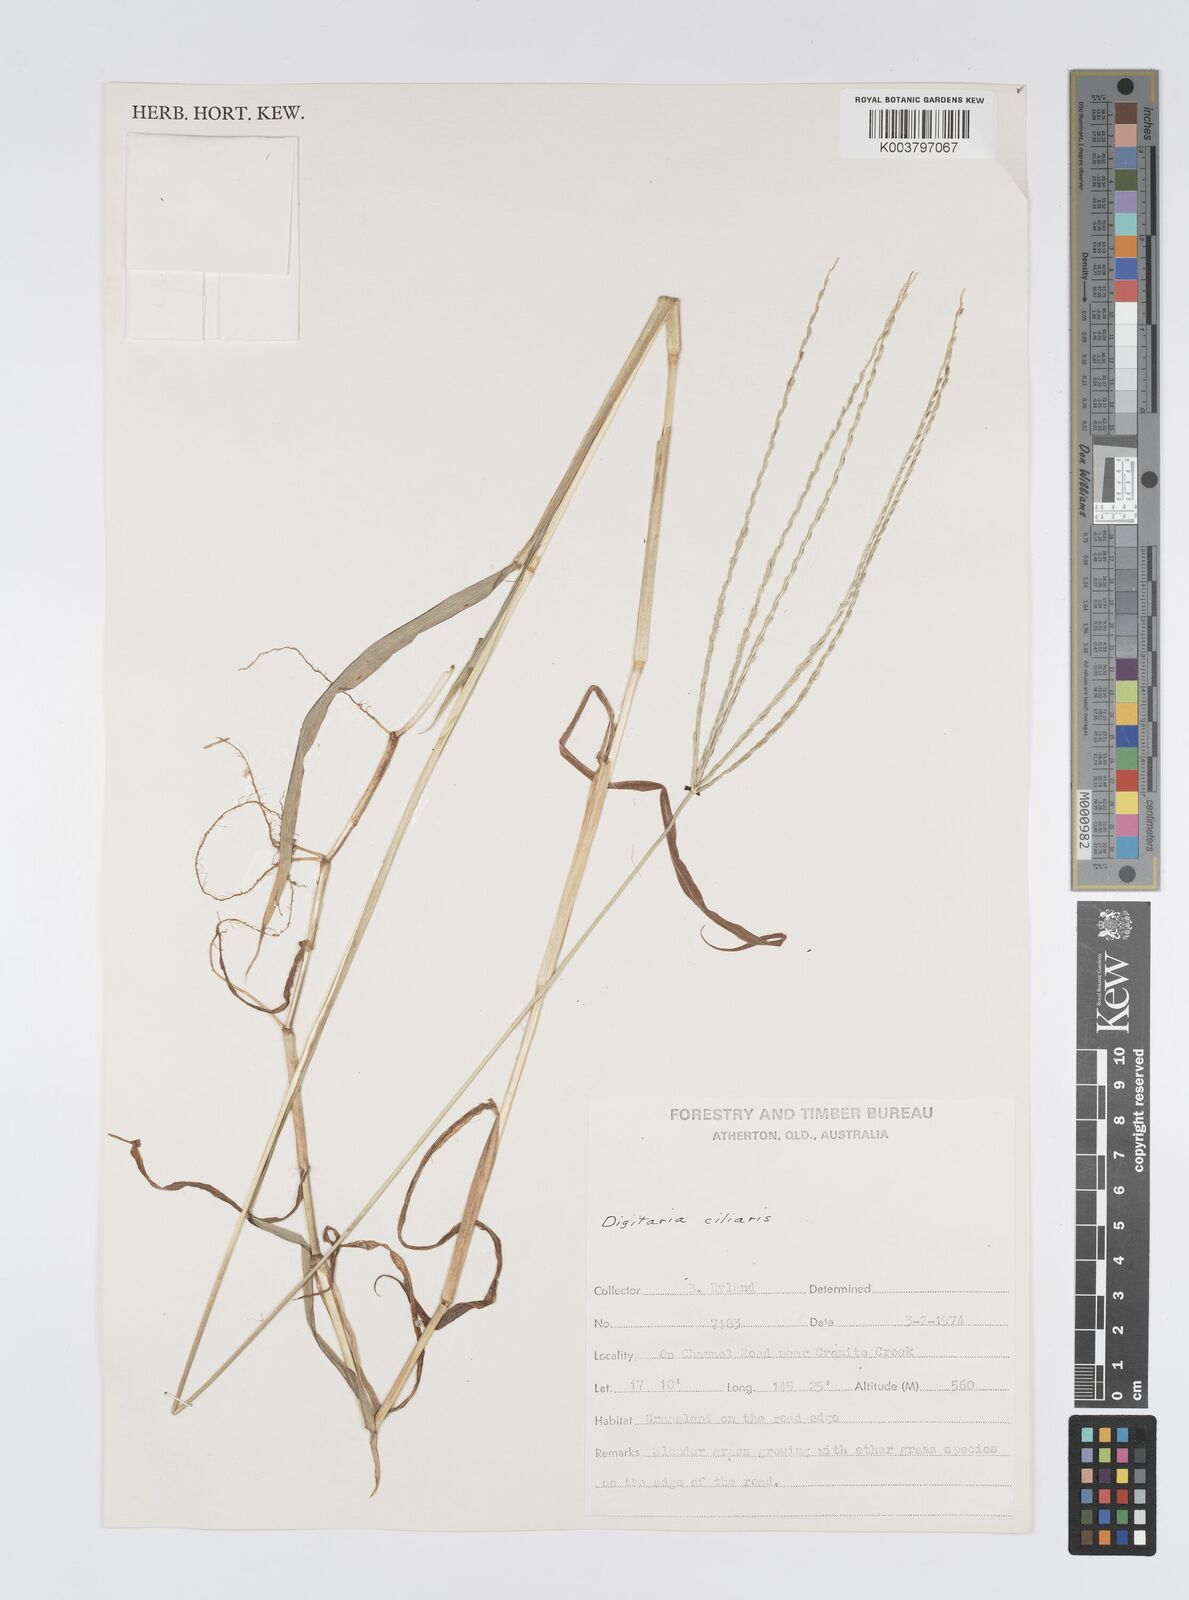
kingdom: Plantae
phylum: Tracheophyta
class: Liliopsida
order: Poales
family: Poaceae
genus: Digitaria
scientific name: Digitaria ciliaris
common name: Tropical finger-grass
